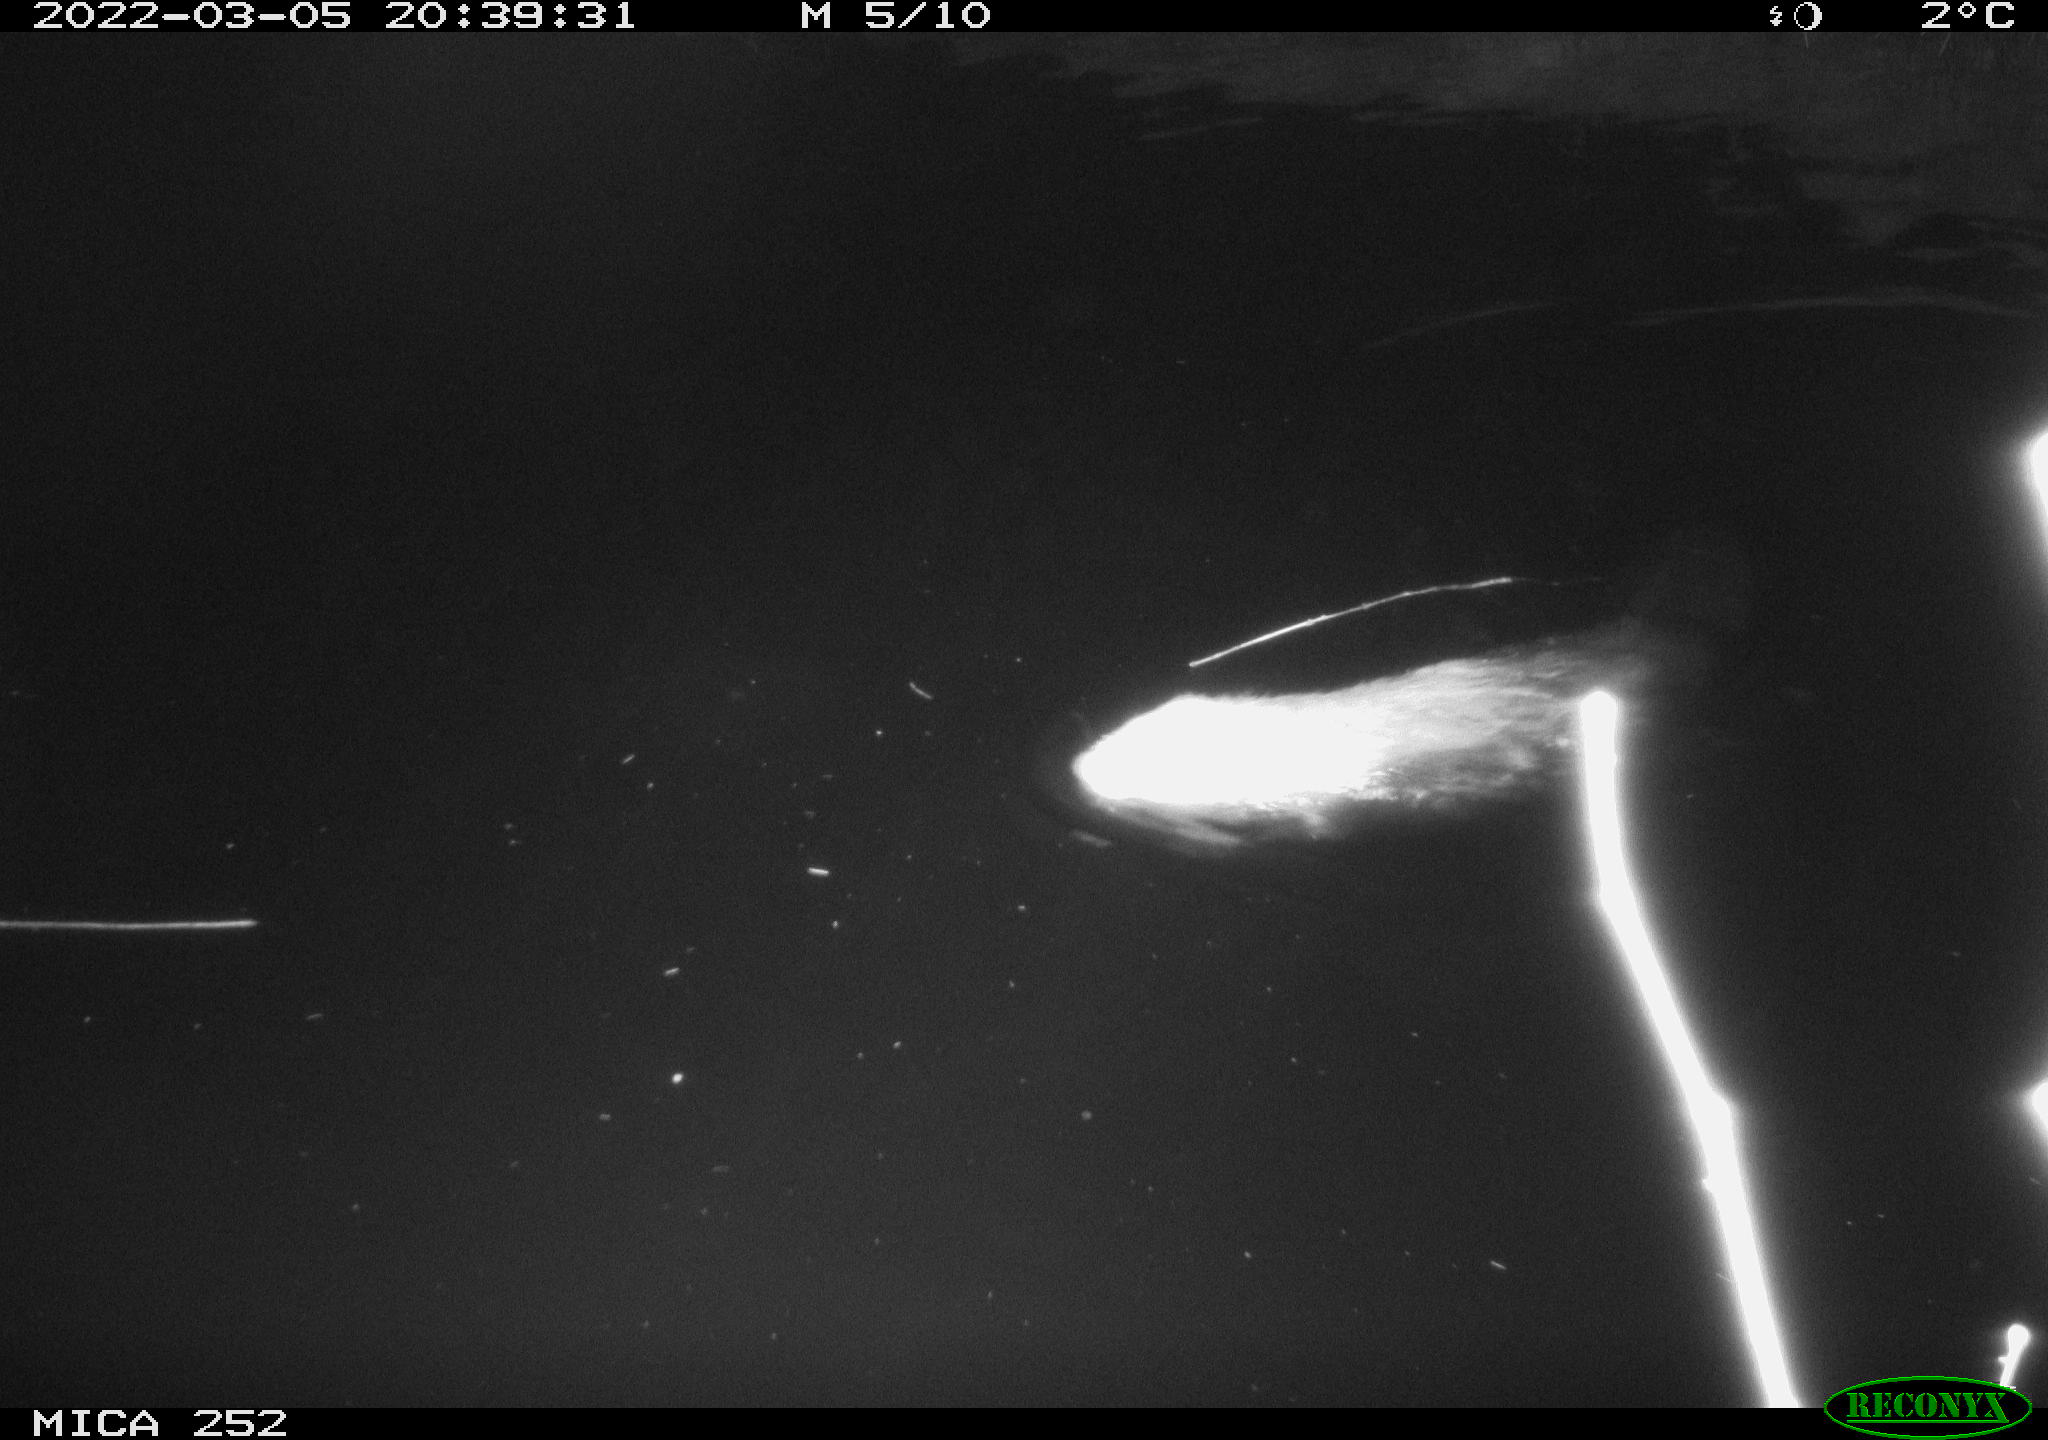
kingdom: Animalia
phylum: Chordata
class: Mammalia
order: Rodentia
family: Castoridae
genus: Castor
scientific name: Castor fiber
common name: Eurasian beaver
